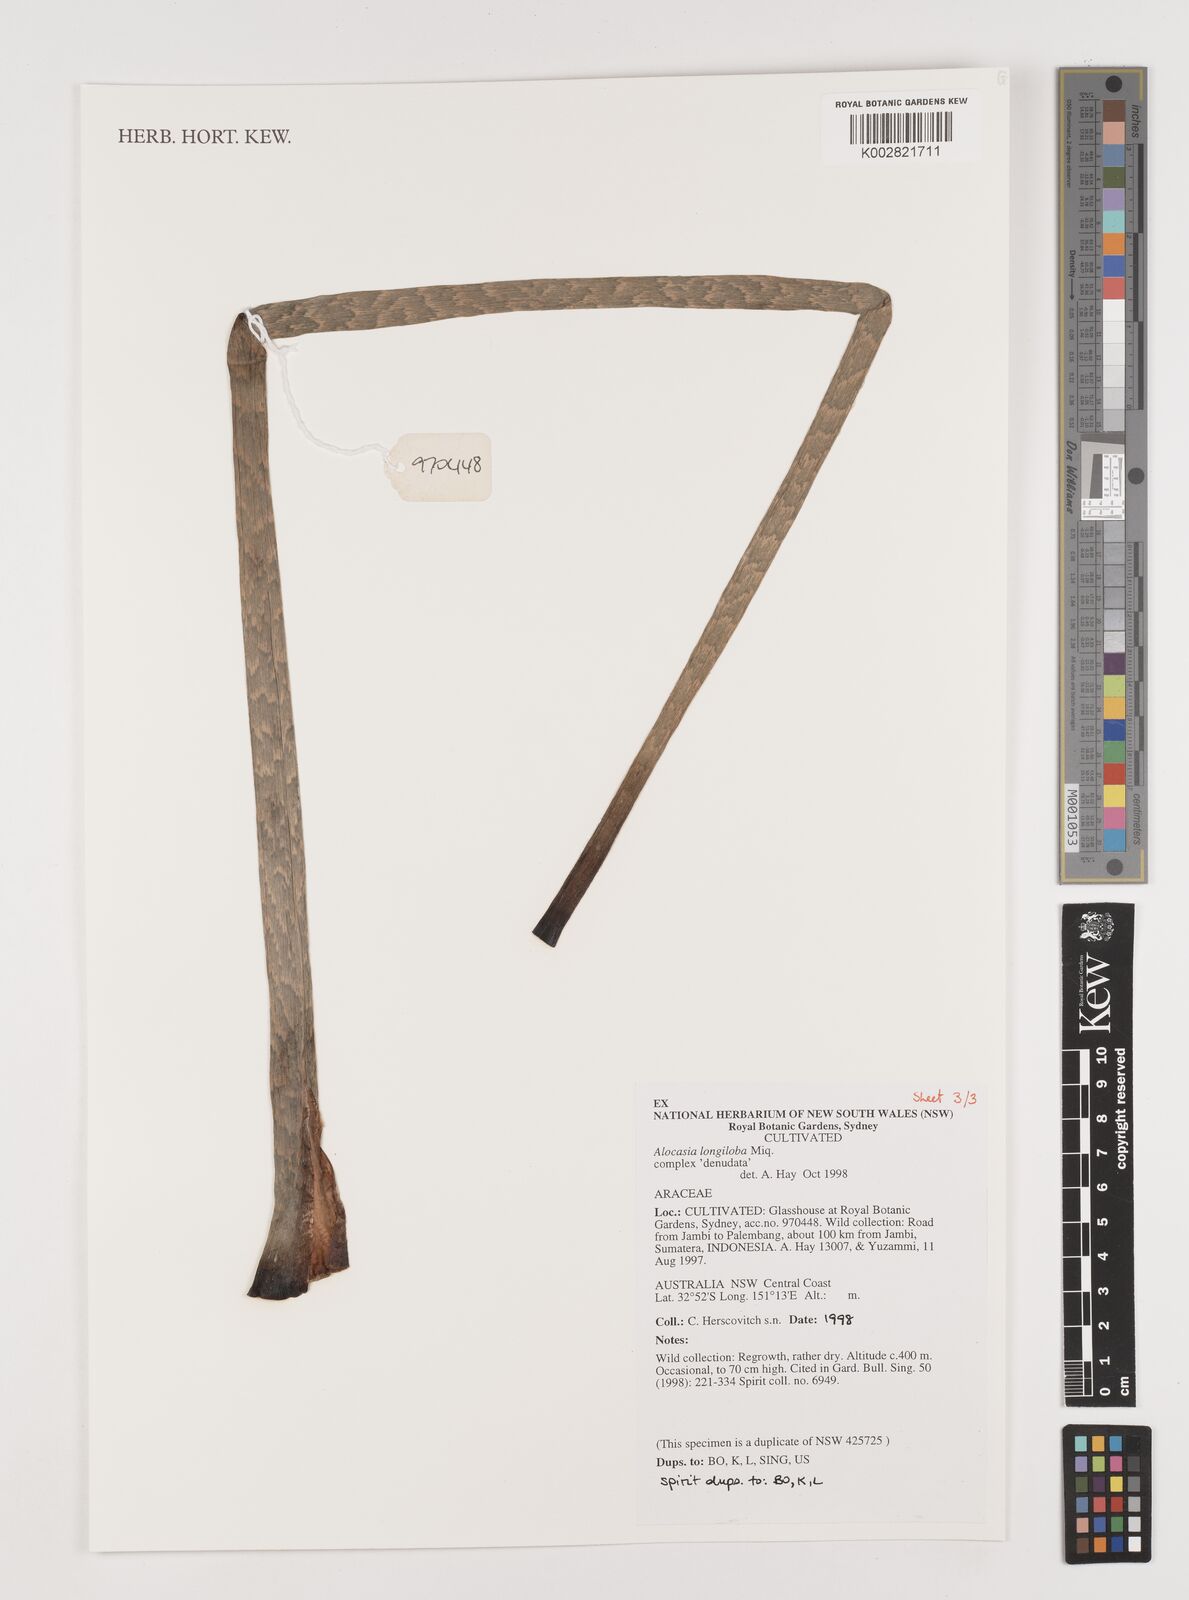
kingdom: Plantae
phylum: Tracheophyta
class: Liliopsida
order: Alismatales
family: Araceae
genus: Alocasia
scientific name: Alocasia longiloba
